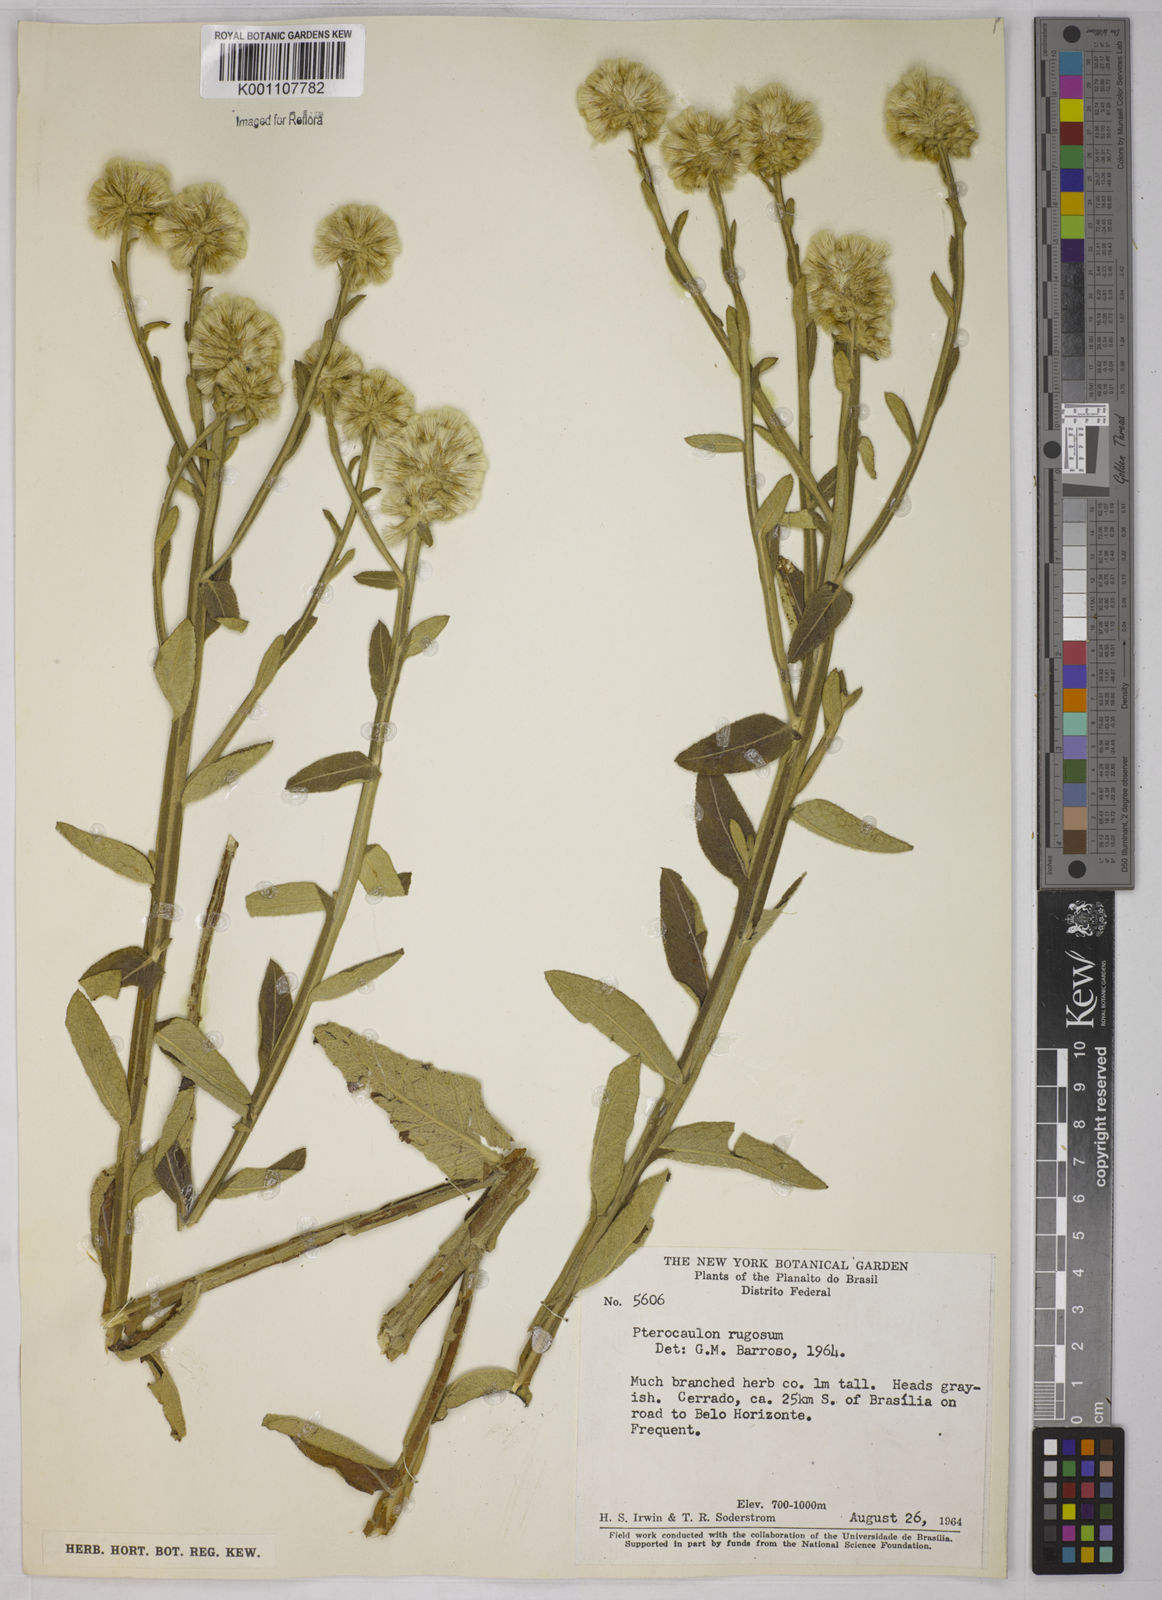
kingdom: Plantae
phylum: Tracheophyta
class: Magnoliopsida
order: Asterales
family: Asteraceae
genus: Pterocaulon
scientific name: Pterocaulon angustifolium
